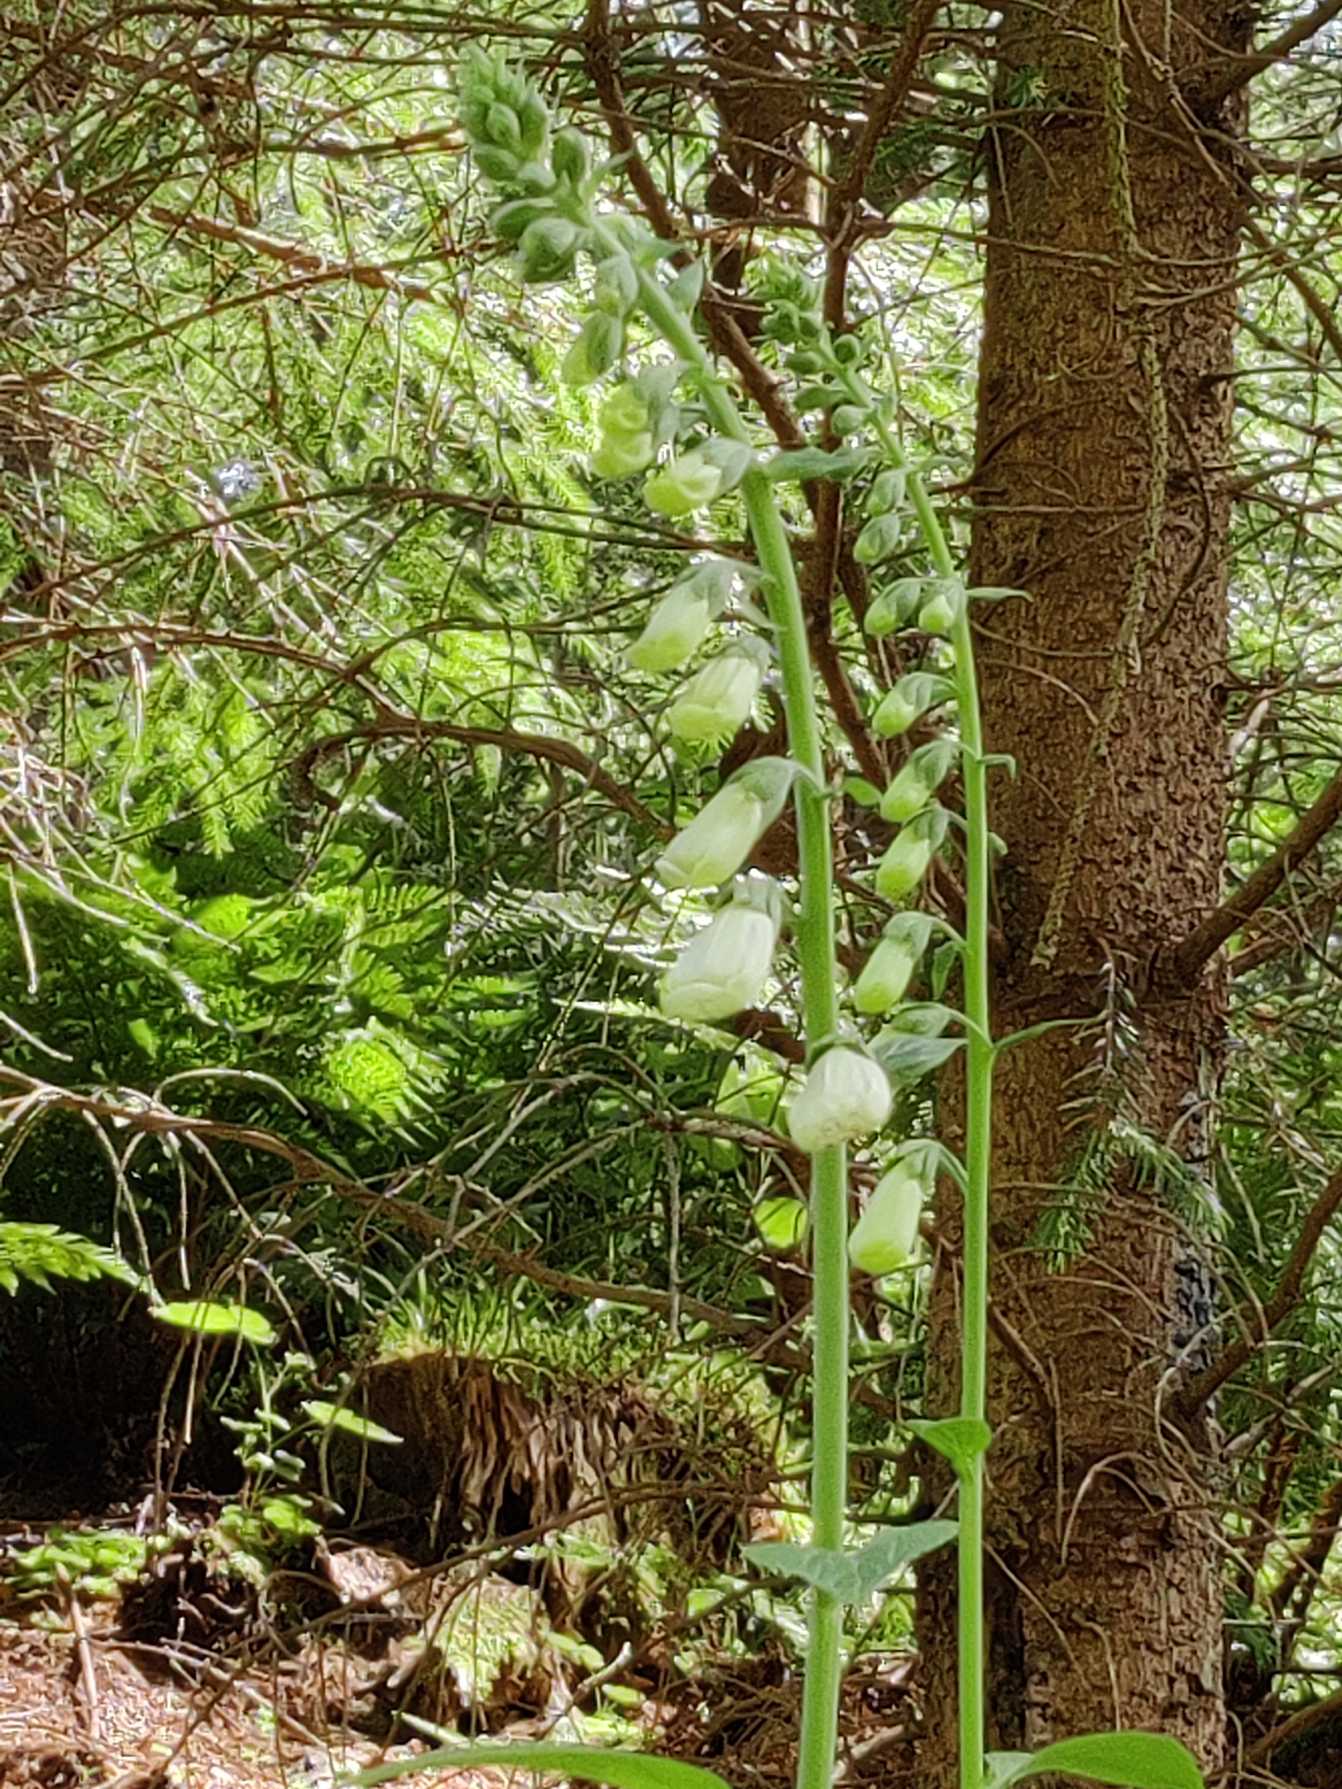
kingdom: Plantae
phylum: Tracheophyta
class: Magnoliopsida
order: Lamiales
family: Plantaginaceae
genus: Digitalis
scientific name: Digitalis purpurea
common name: Almindelig fingerbøl
